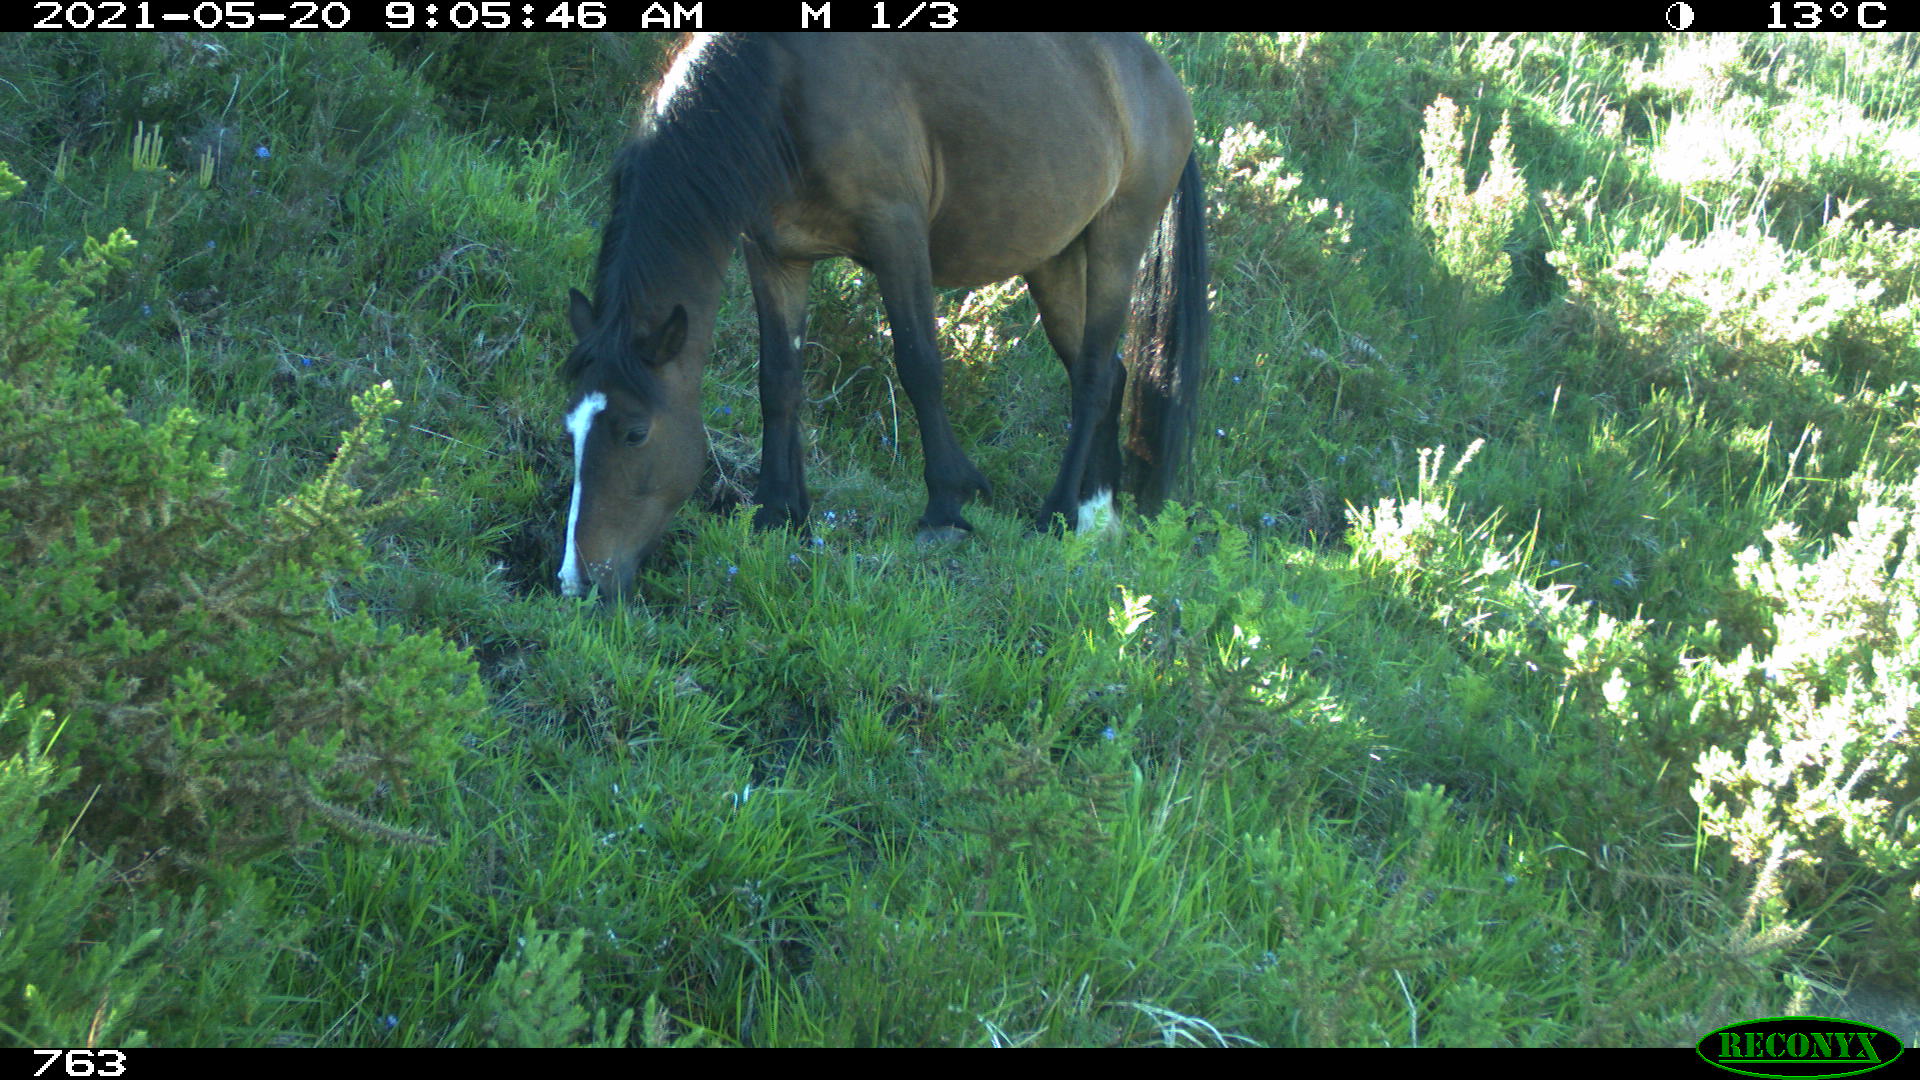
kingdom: Animalia
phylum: Chordata
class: Mammalia
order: Perissodactyla
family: Equidae
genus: Equus
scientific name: Equus caballus
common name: Horse
